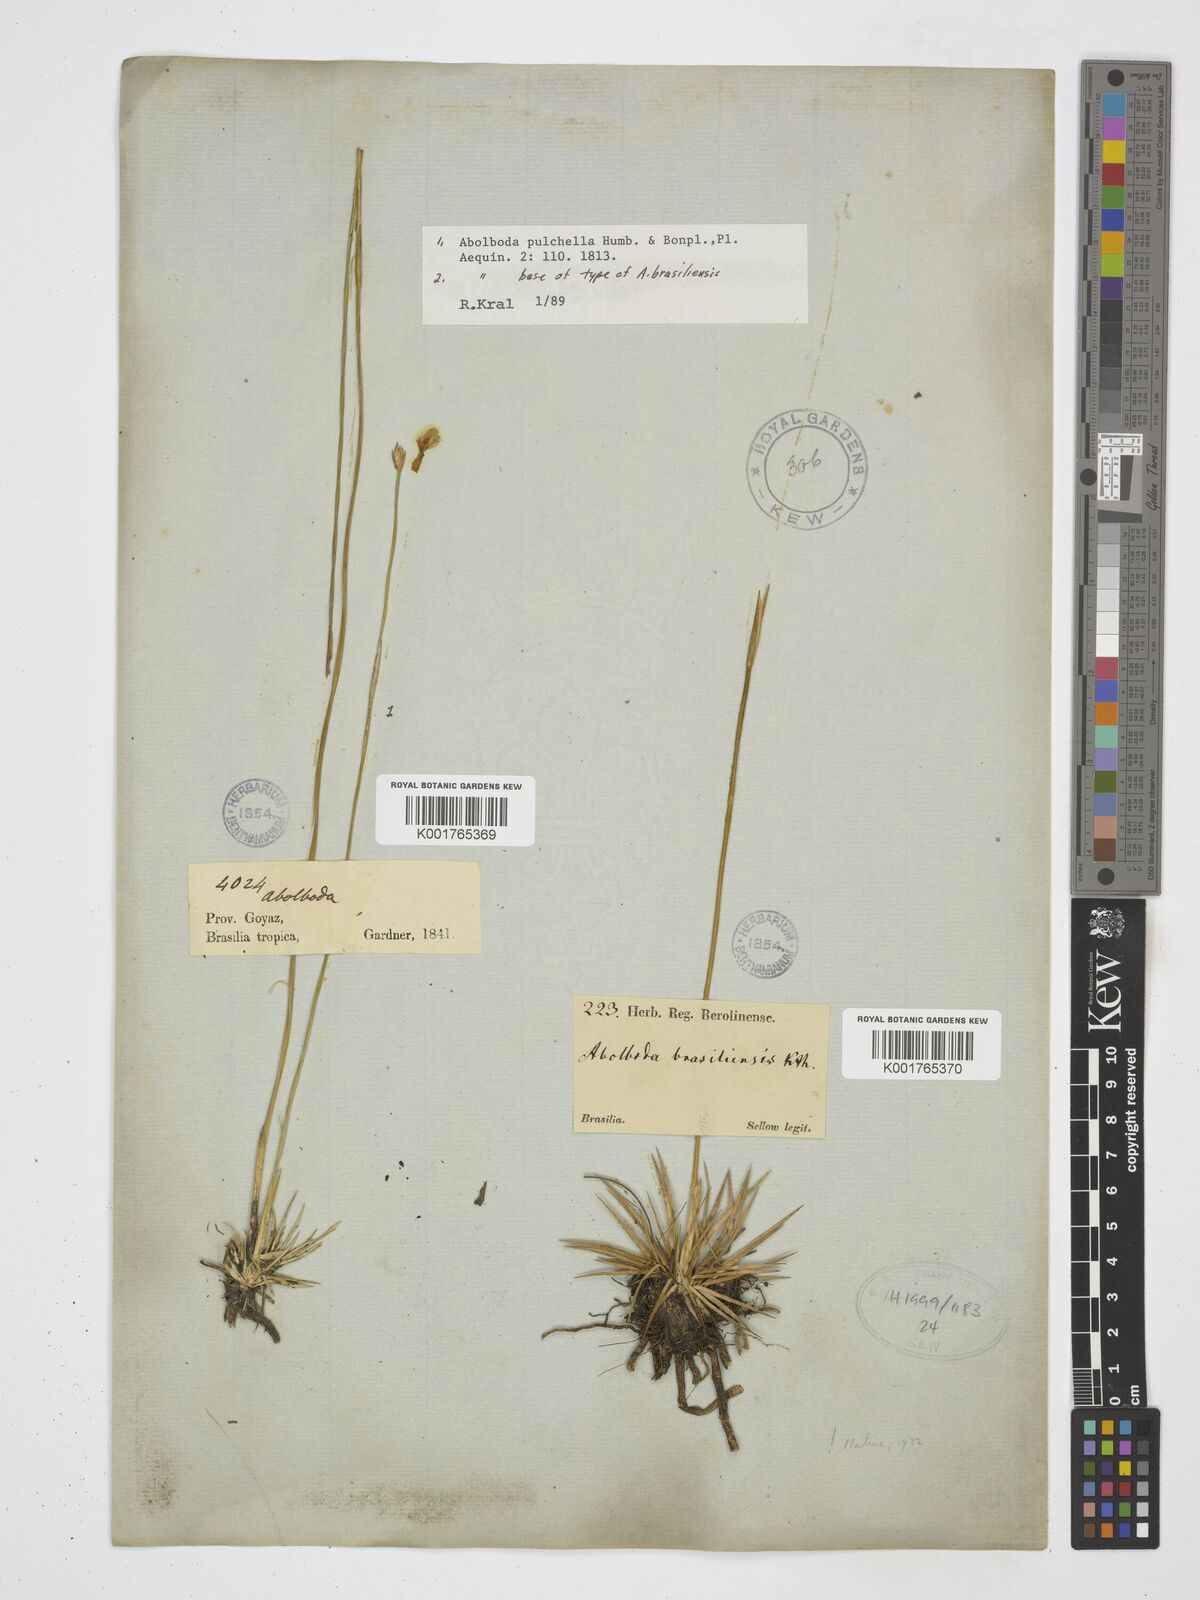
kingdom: Plantae
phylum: Tracheophyta
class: Liliopsida
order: Poales
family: Xyridaceae
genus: Abolboda
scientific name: Abolboda pulchella
